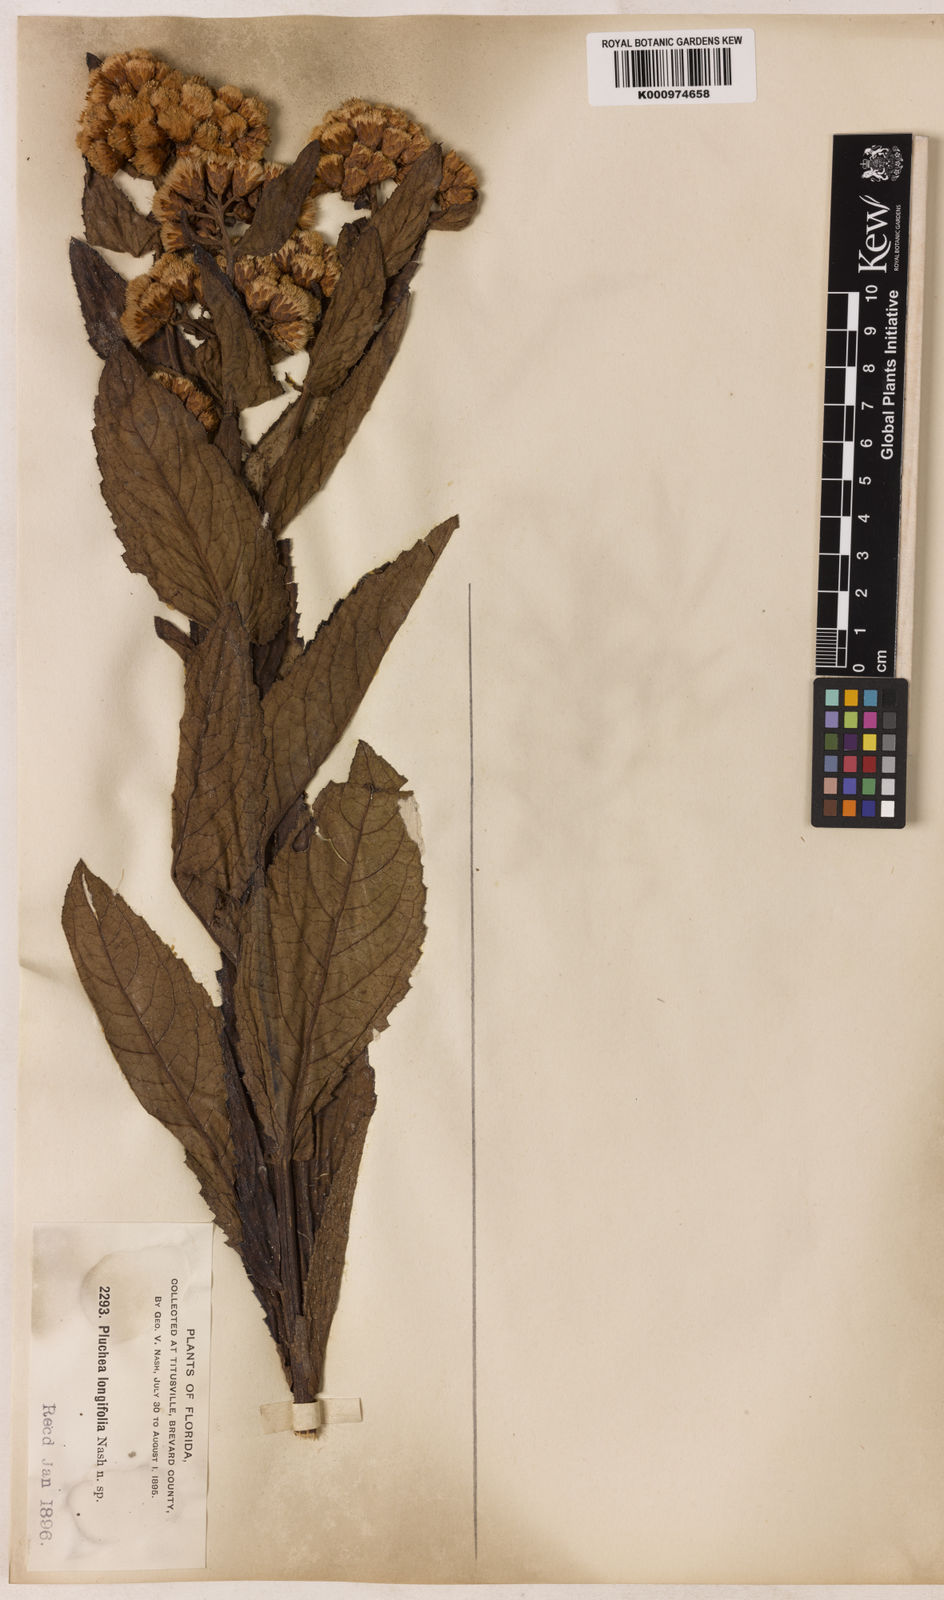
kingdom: Plantae
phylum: Tracheophyta
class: Magnoliopsida
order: Asterales
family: Asteraceae
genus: Pluchea
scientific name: Pluchea longifolia
